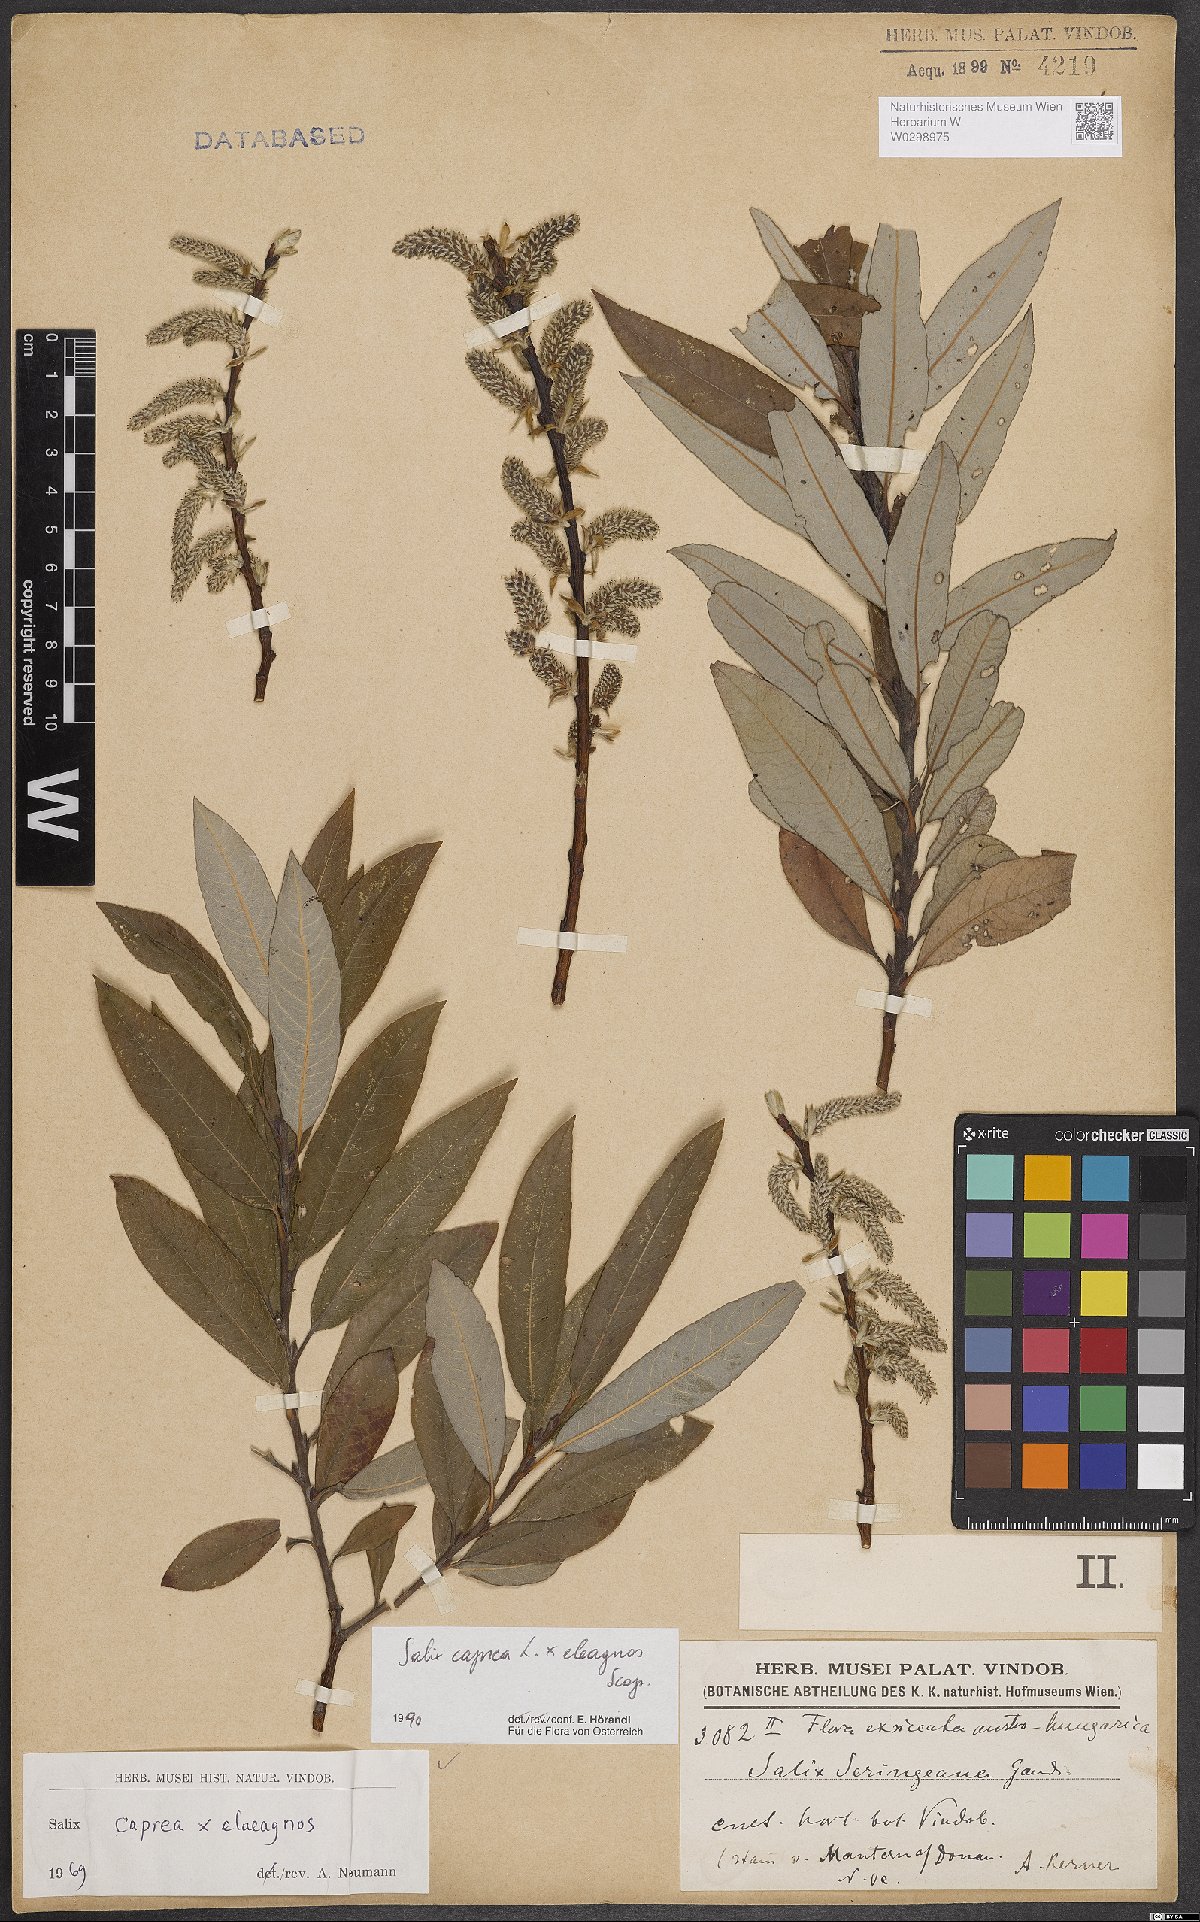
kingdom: Plantae
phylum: Tracheophyta
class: Magnoliopsida
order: Malpighiales
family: Salicaceae
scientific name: Salicaceae
